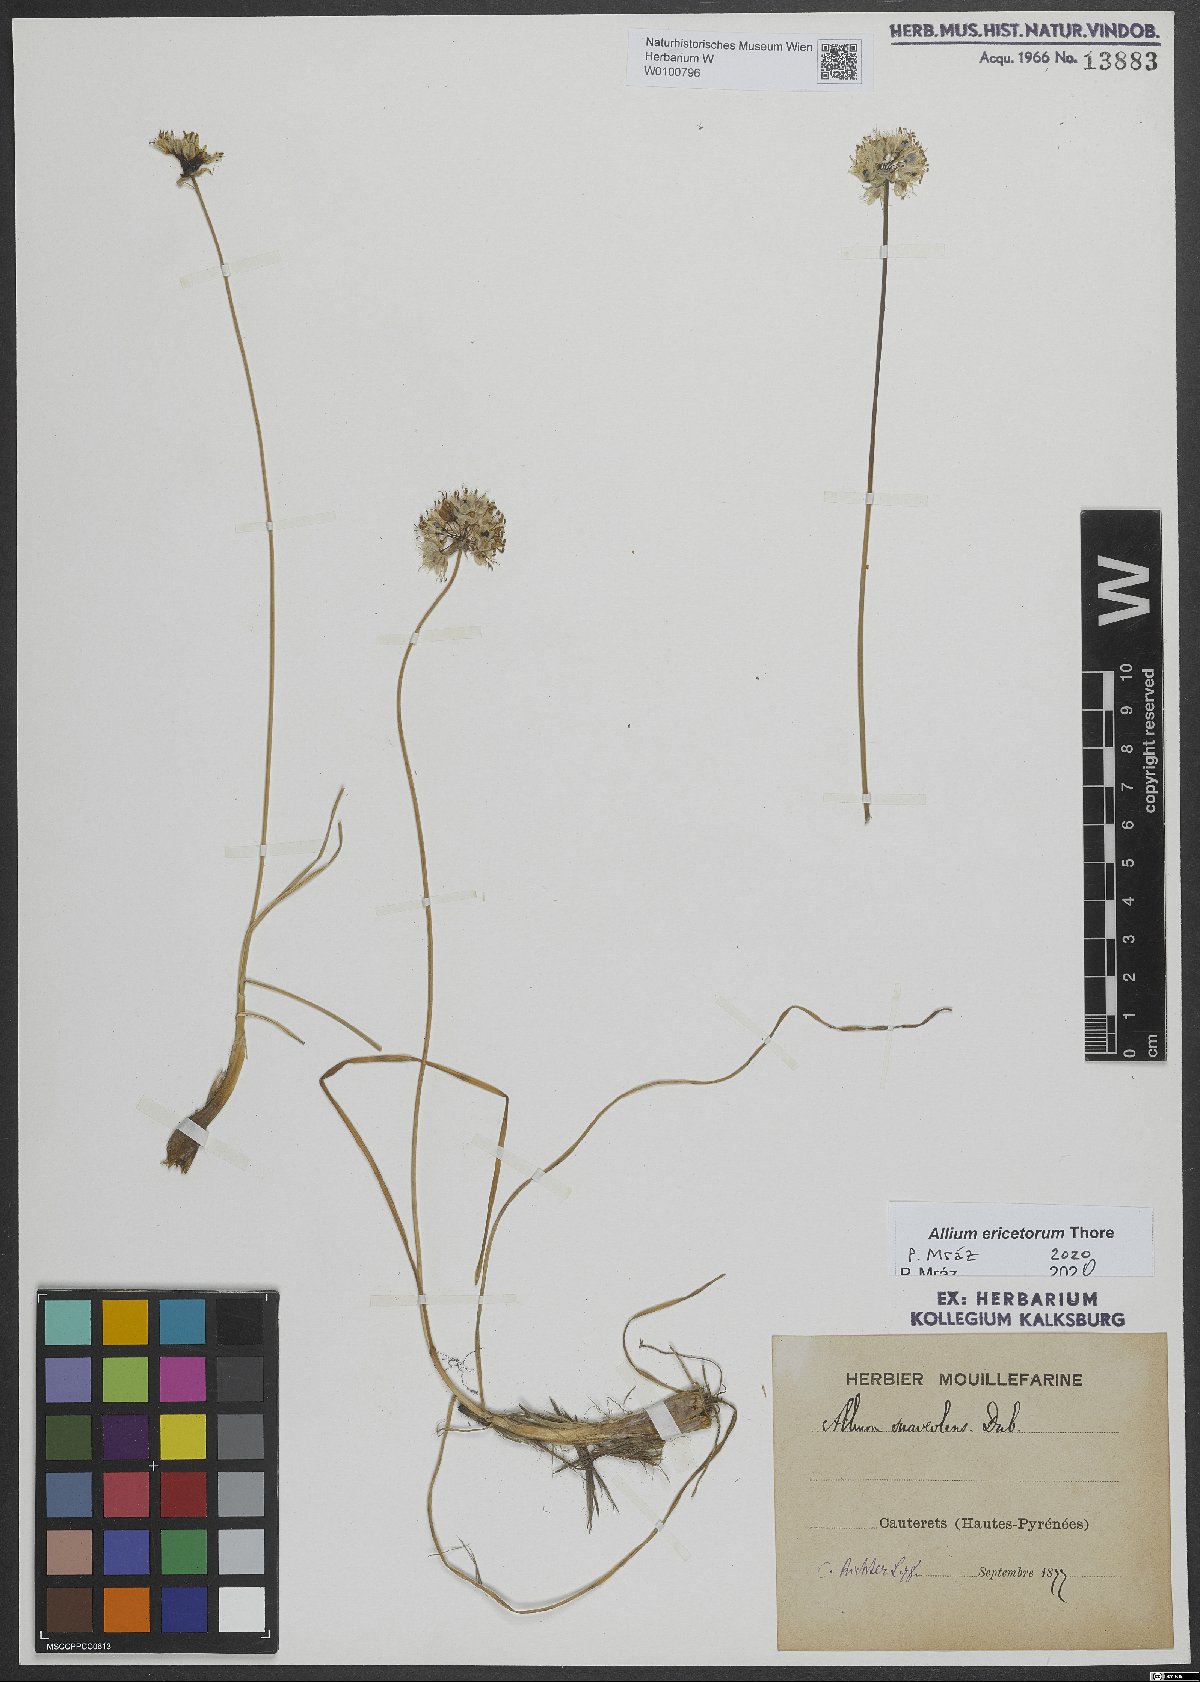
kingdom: Plantae
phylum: Tracheophyta
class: Liliopsida
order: Asparagales
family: Amaryllidaceae
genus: Allium
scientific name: Allium ericetorum
